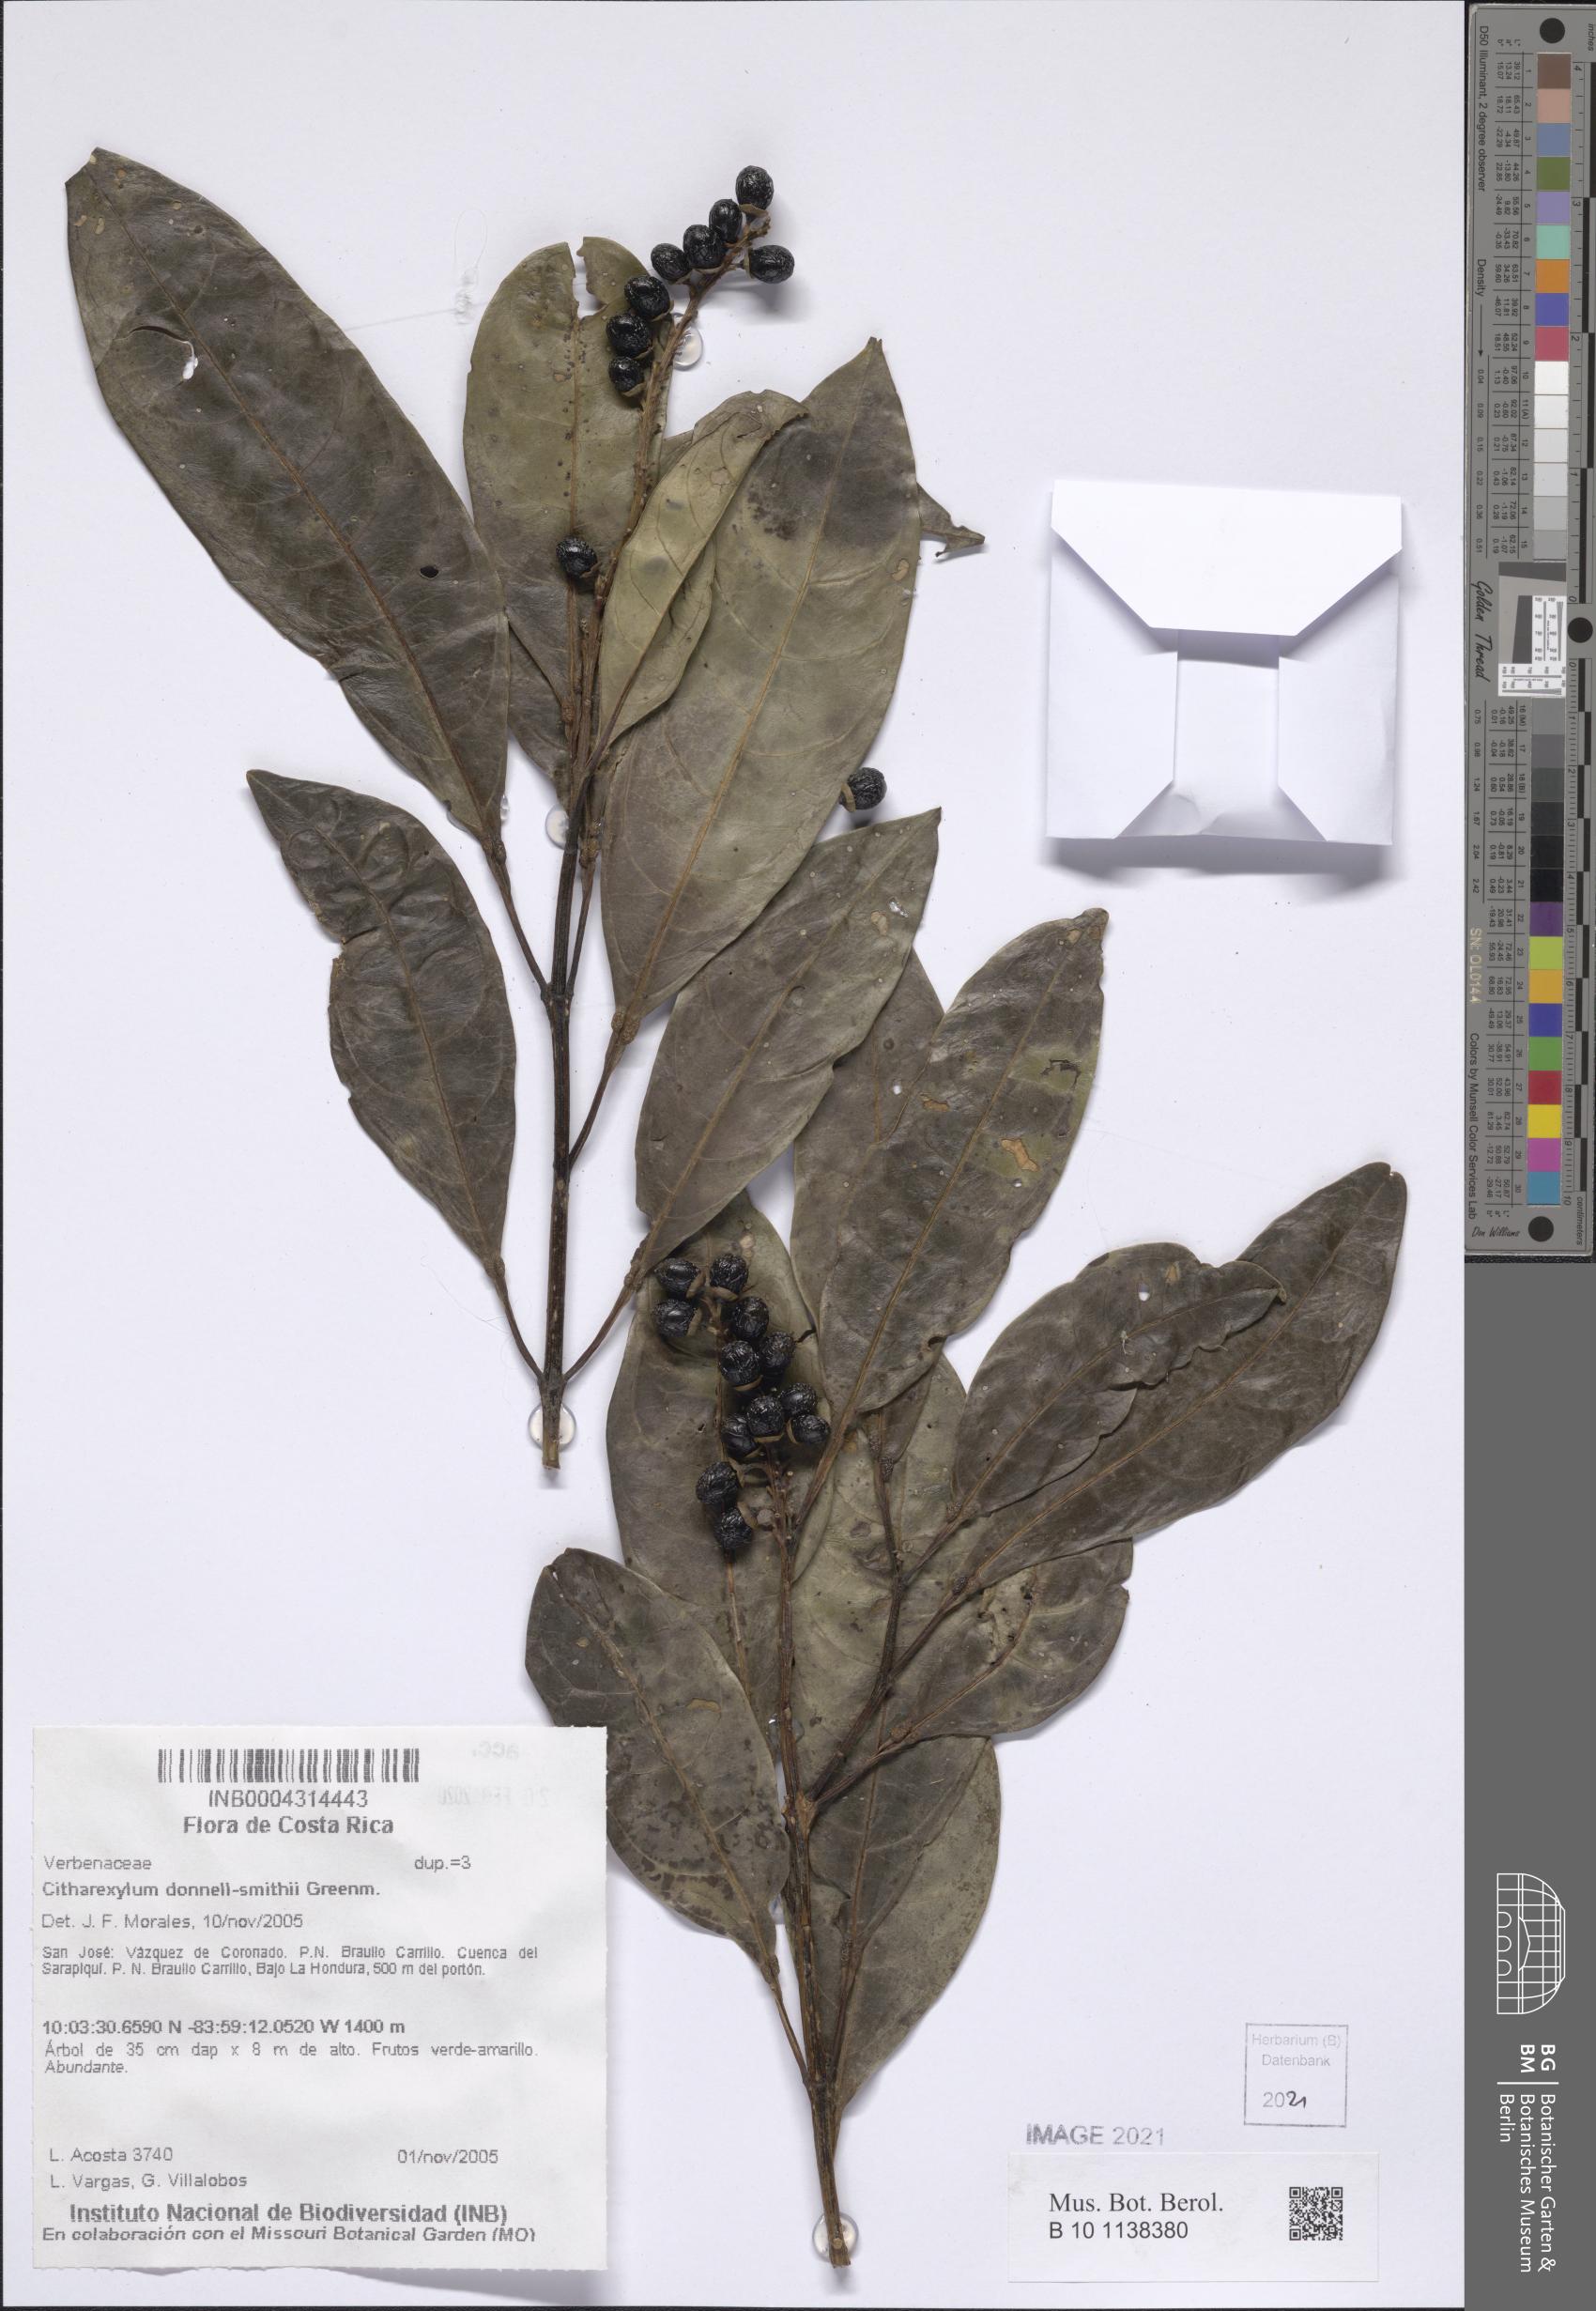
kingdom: Plantae
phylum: Tracheophyta
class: Magnoliopsida
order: Lamiales
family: Verbenaceae
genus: Citharexylum
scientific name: Citharexylum macradenium
